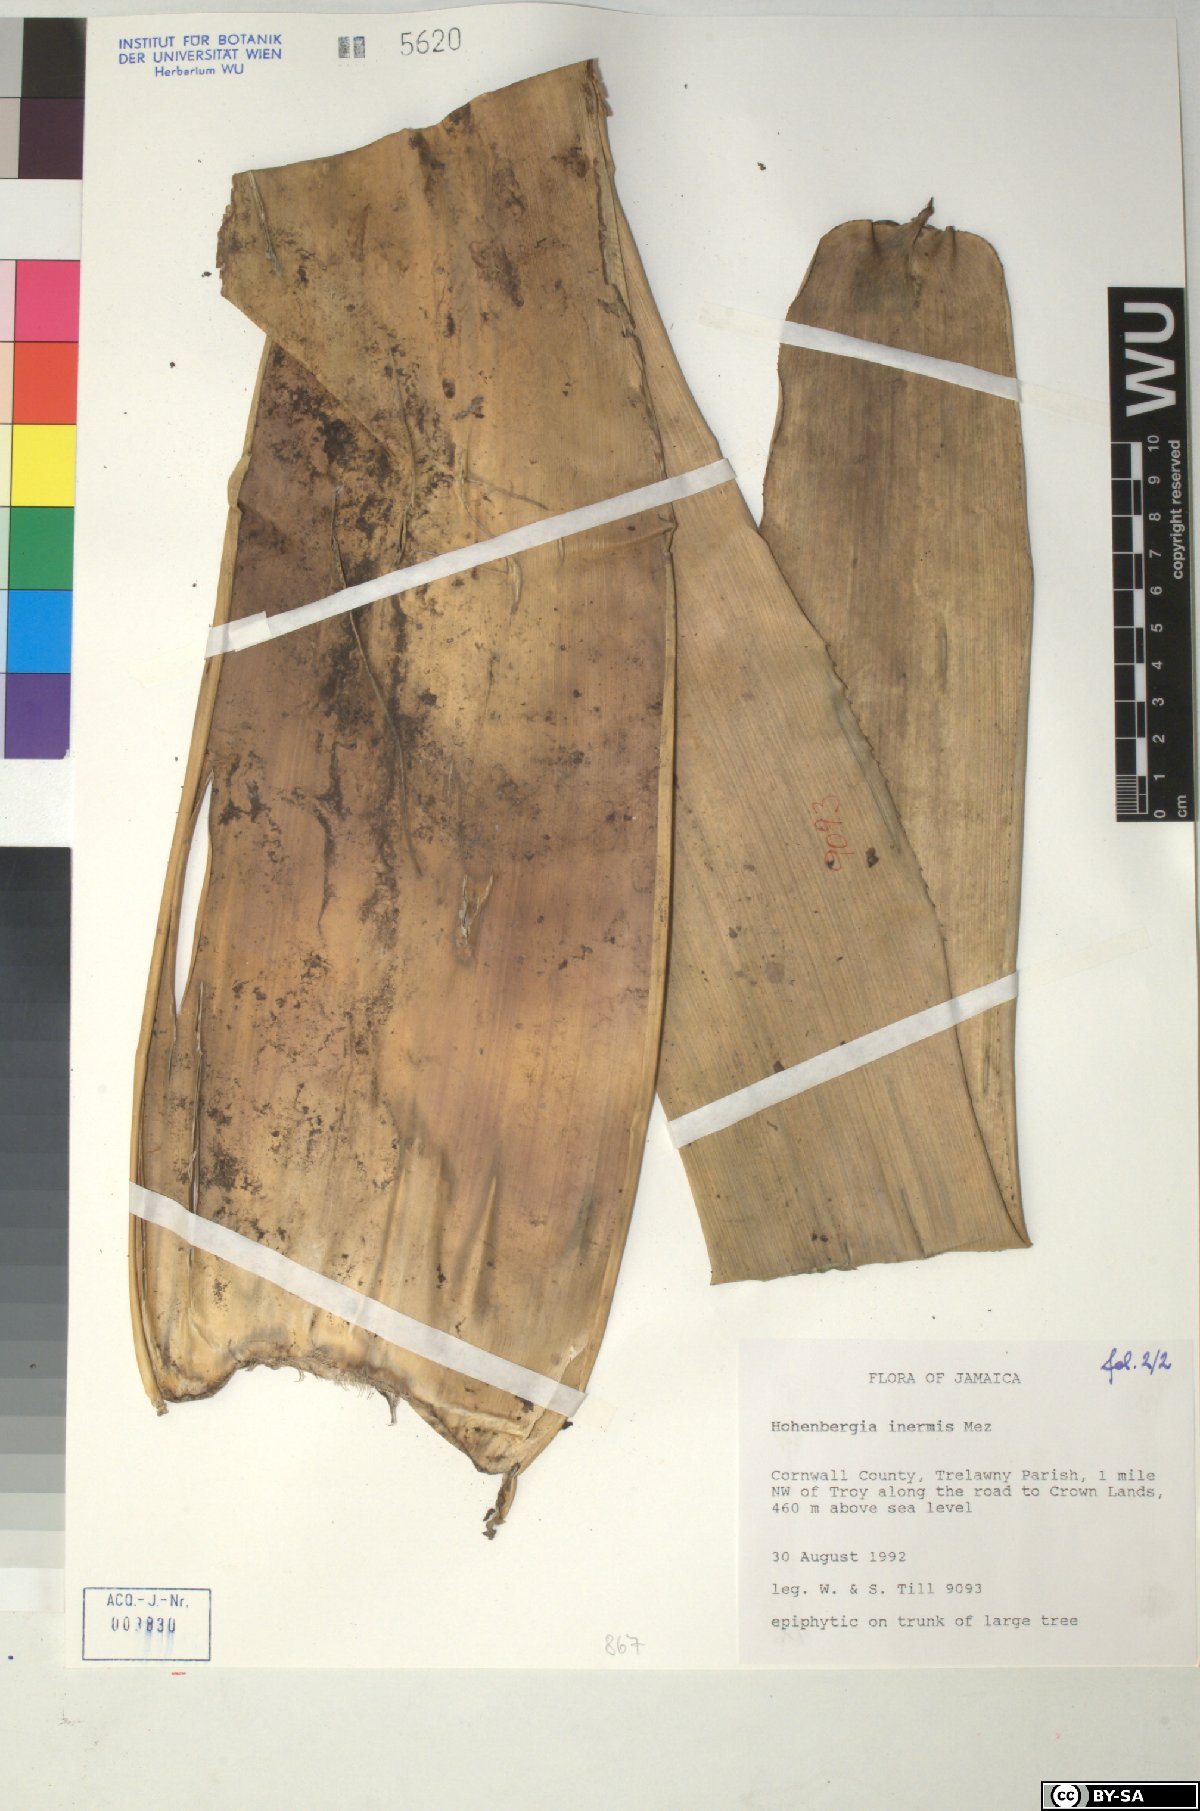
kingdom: Plantae
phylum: Tracheophyta
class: Liliopsida
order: Poales
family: Bromeliaceae
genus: Wittmackia
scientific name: Wittmackia inermis
